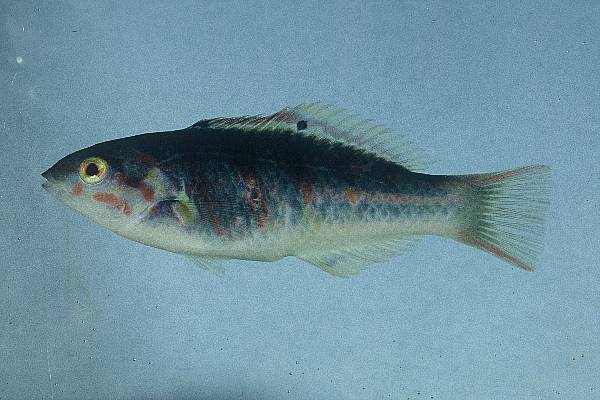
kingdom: Animalia
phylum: Chordata
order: Perciformes
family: Labridae
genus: Thalassoma
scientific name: Thalassoma hardwicke
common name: Sixbar wrasse
